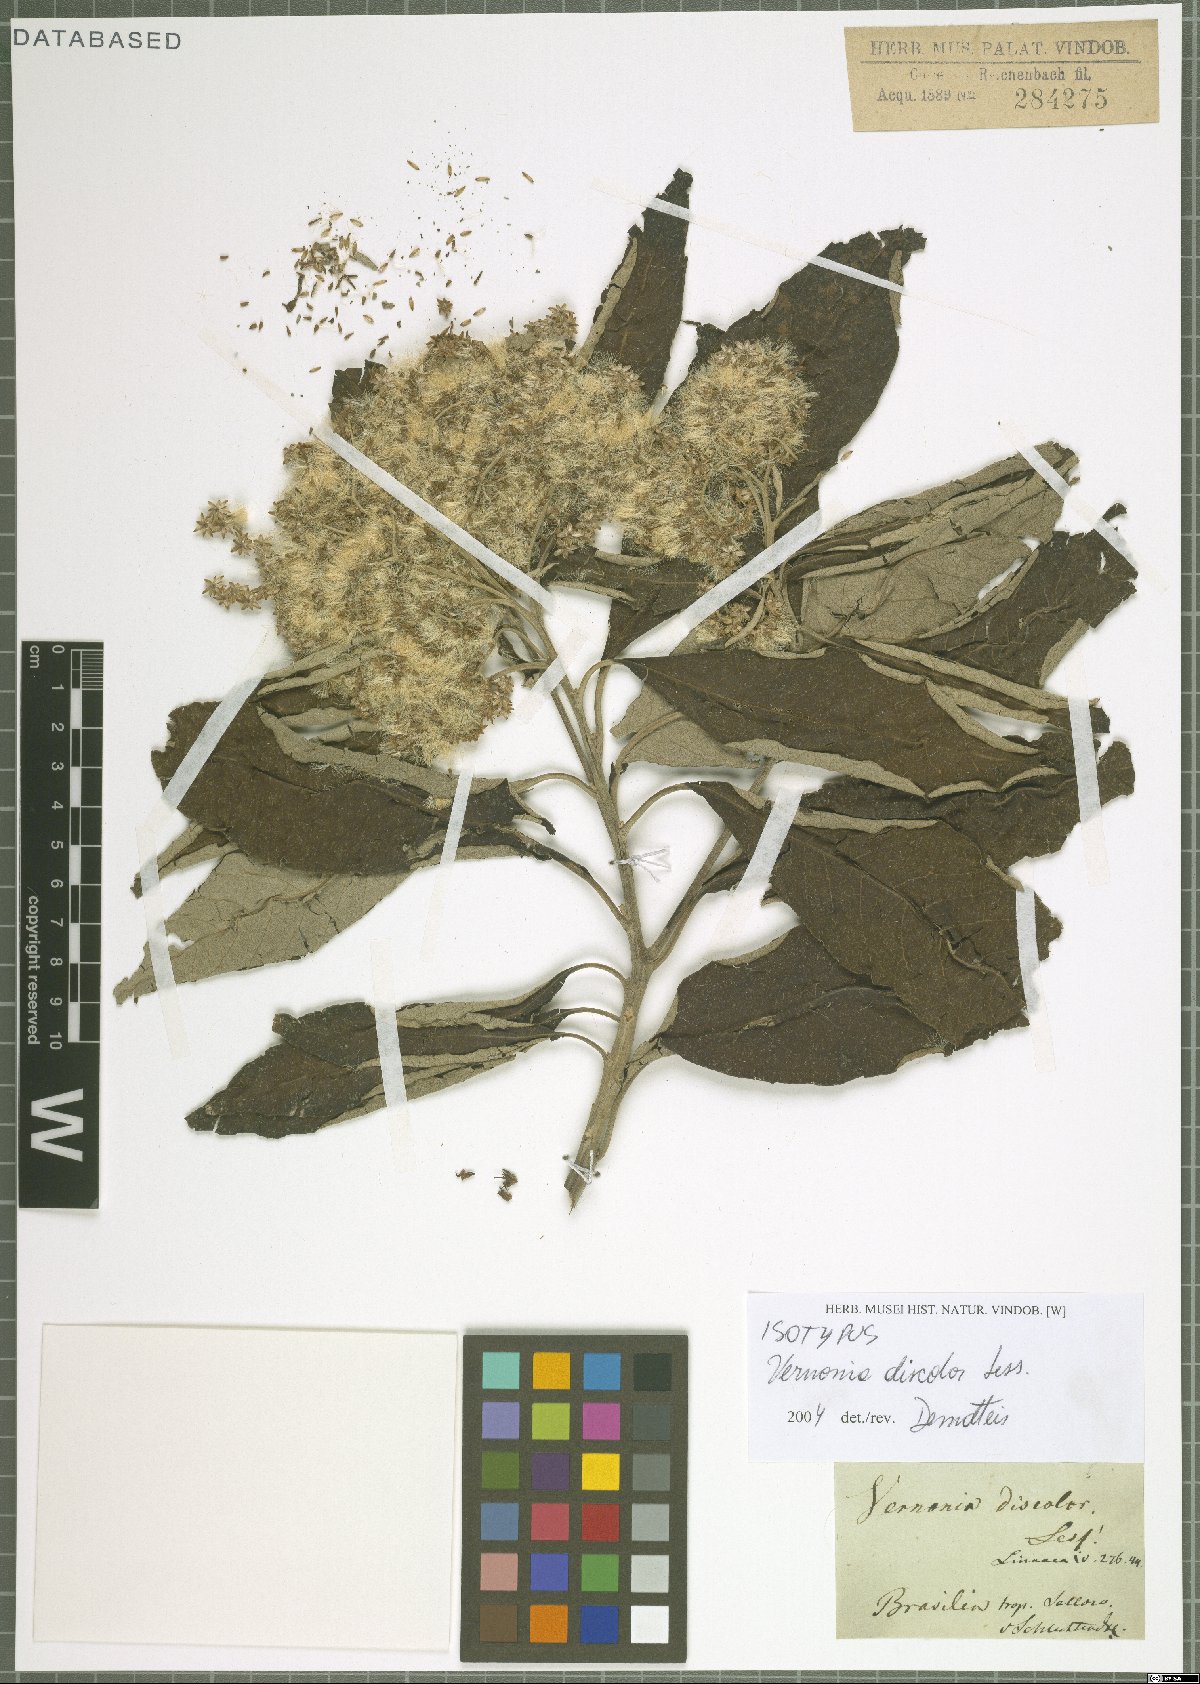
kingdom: Plantae
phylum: Tracheophyta
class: Magnoliopsida
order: Asterales
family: Asteraceae
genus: Vernonanthura
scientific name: Vernonanthura discolor
